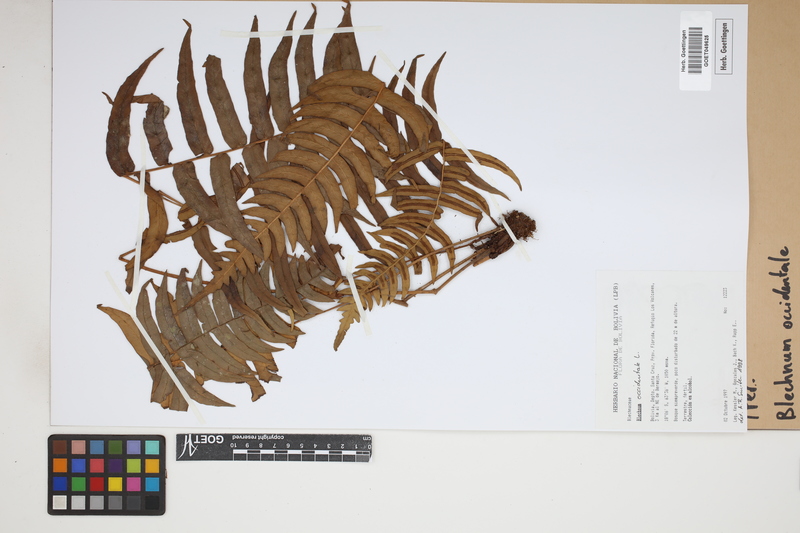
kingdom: Plantae
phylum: Tracheophyta
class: Polypodiopsida
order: Polypodiales
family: Blechnaceae
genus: Blechnum
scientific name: Blechnum occidentale
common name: Hammock fern
